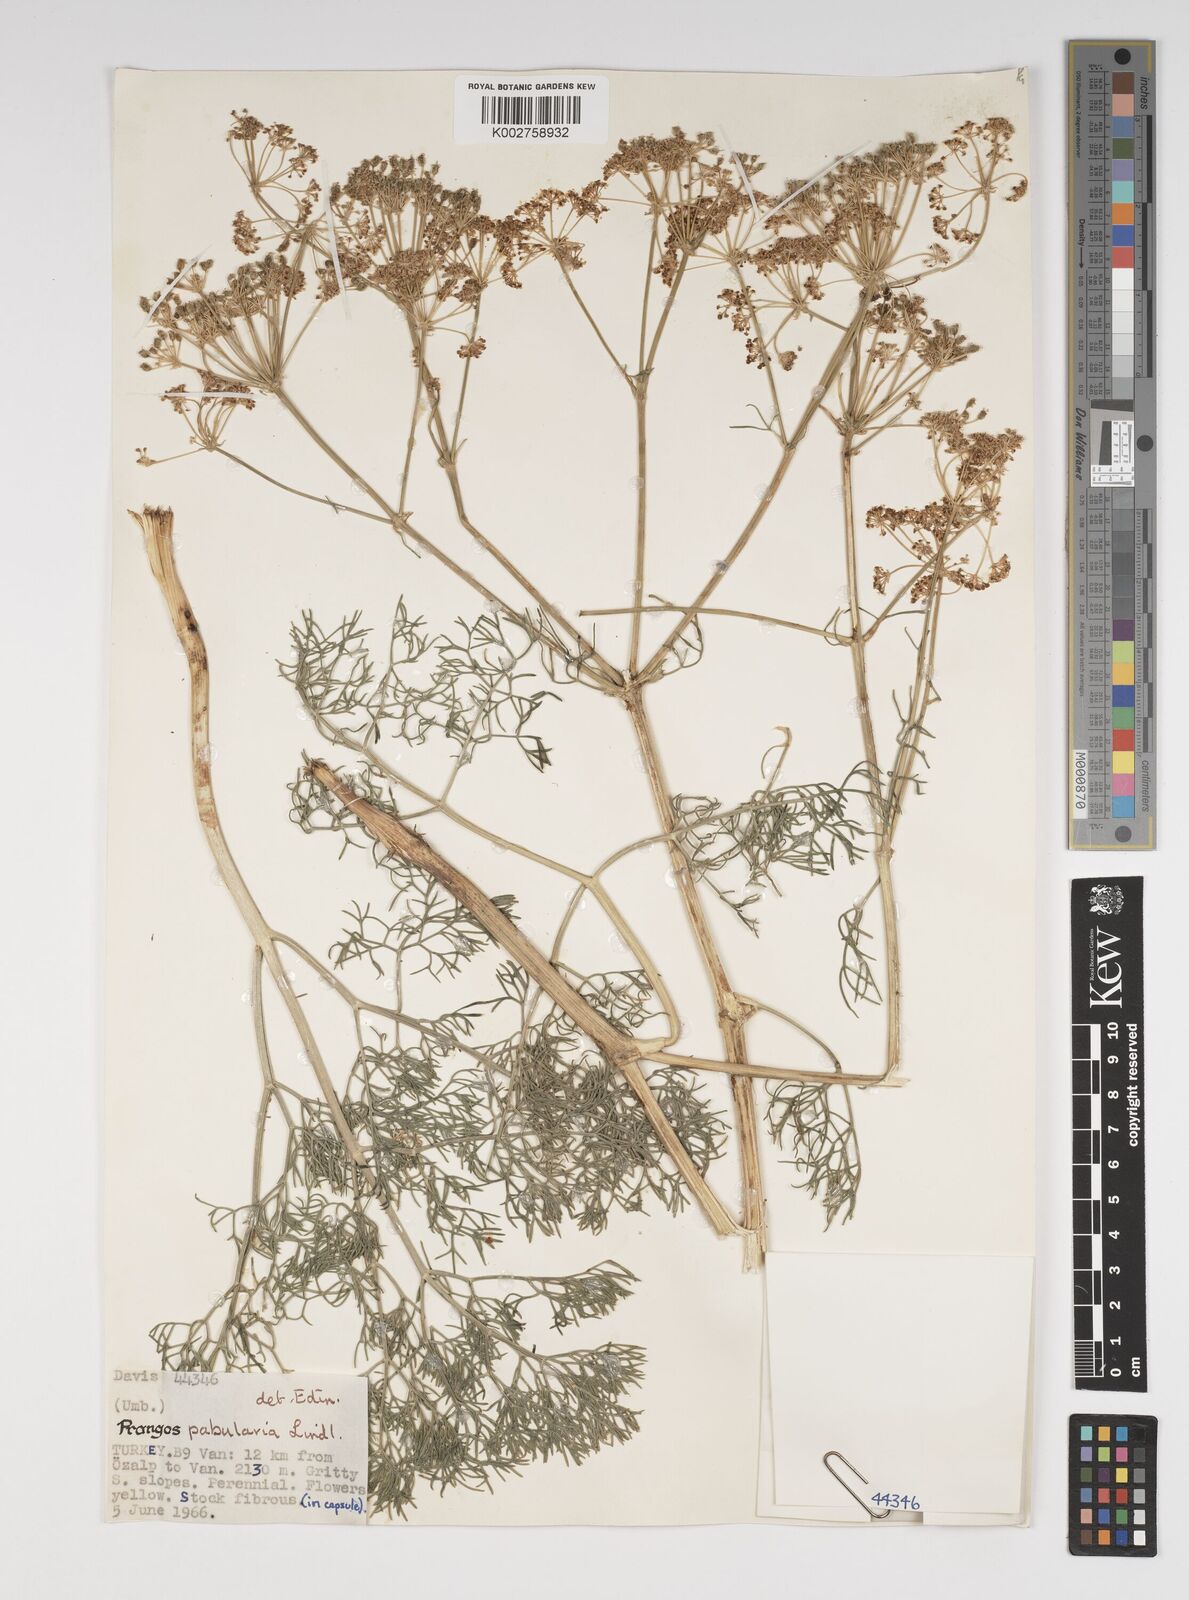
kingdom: Plantae
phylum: Tracheophyta
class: Magnoliopsida
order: Apiales
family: Apiaceae
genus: Prangos
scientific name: Prangos pabularia
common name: Yugan
